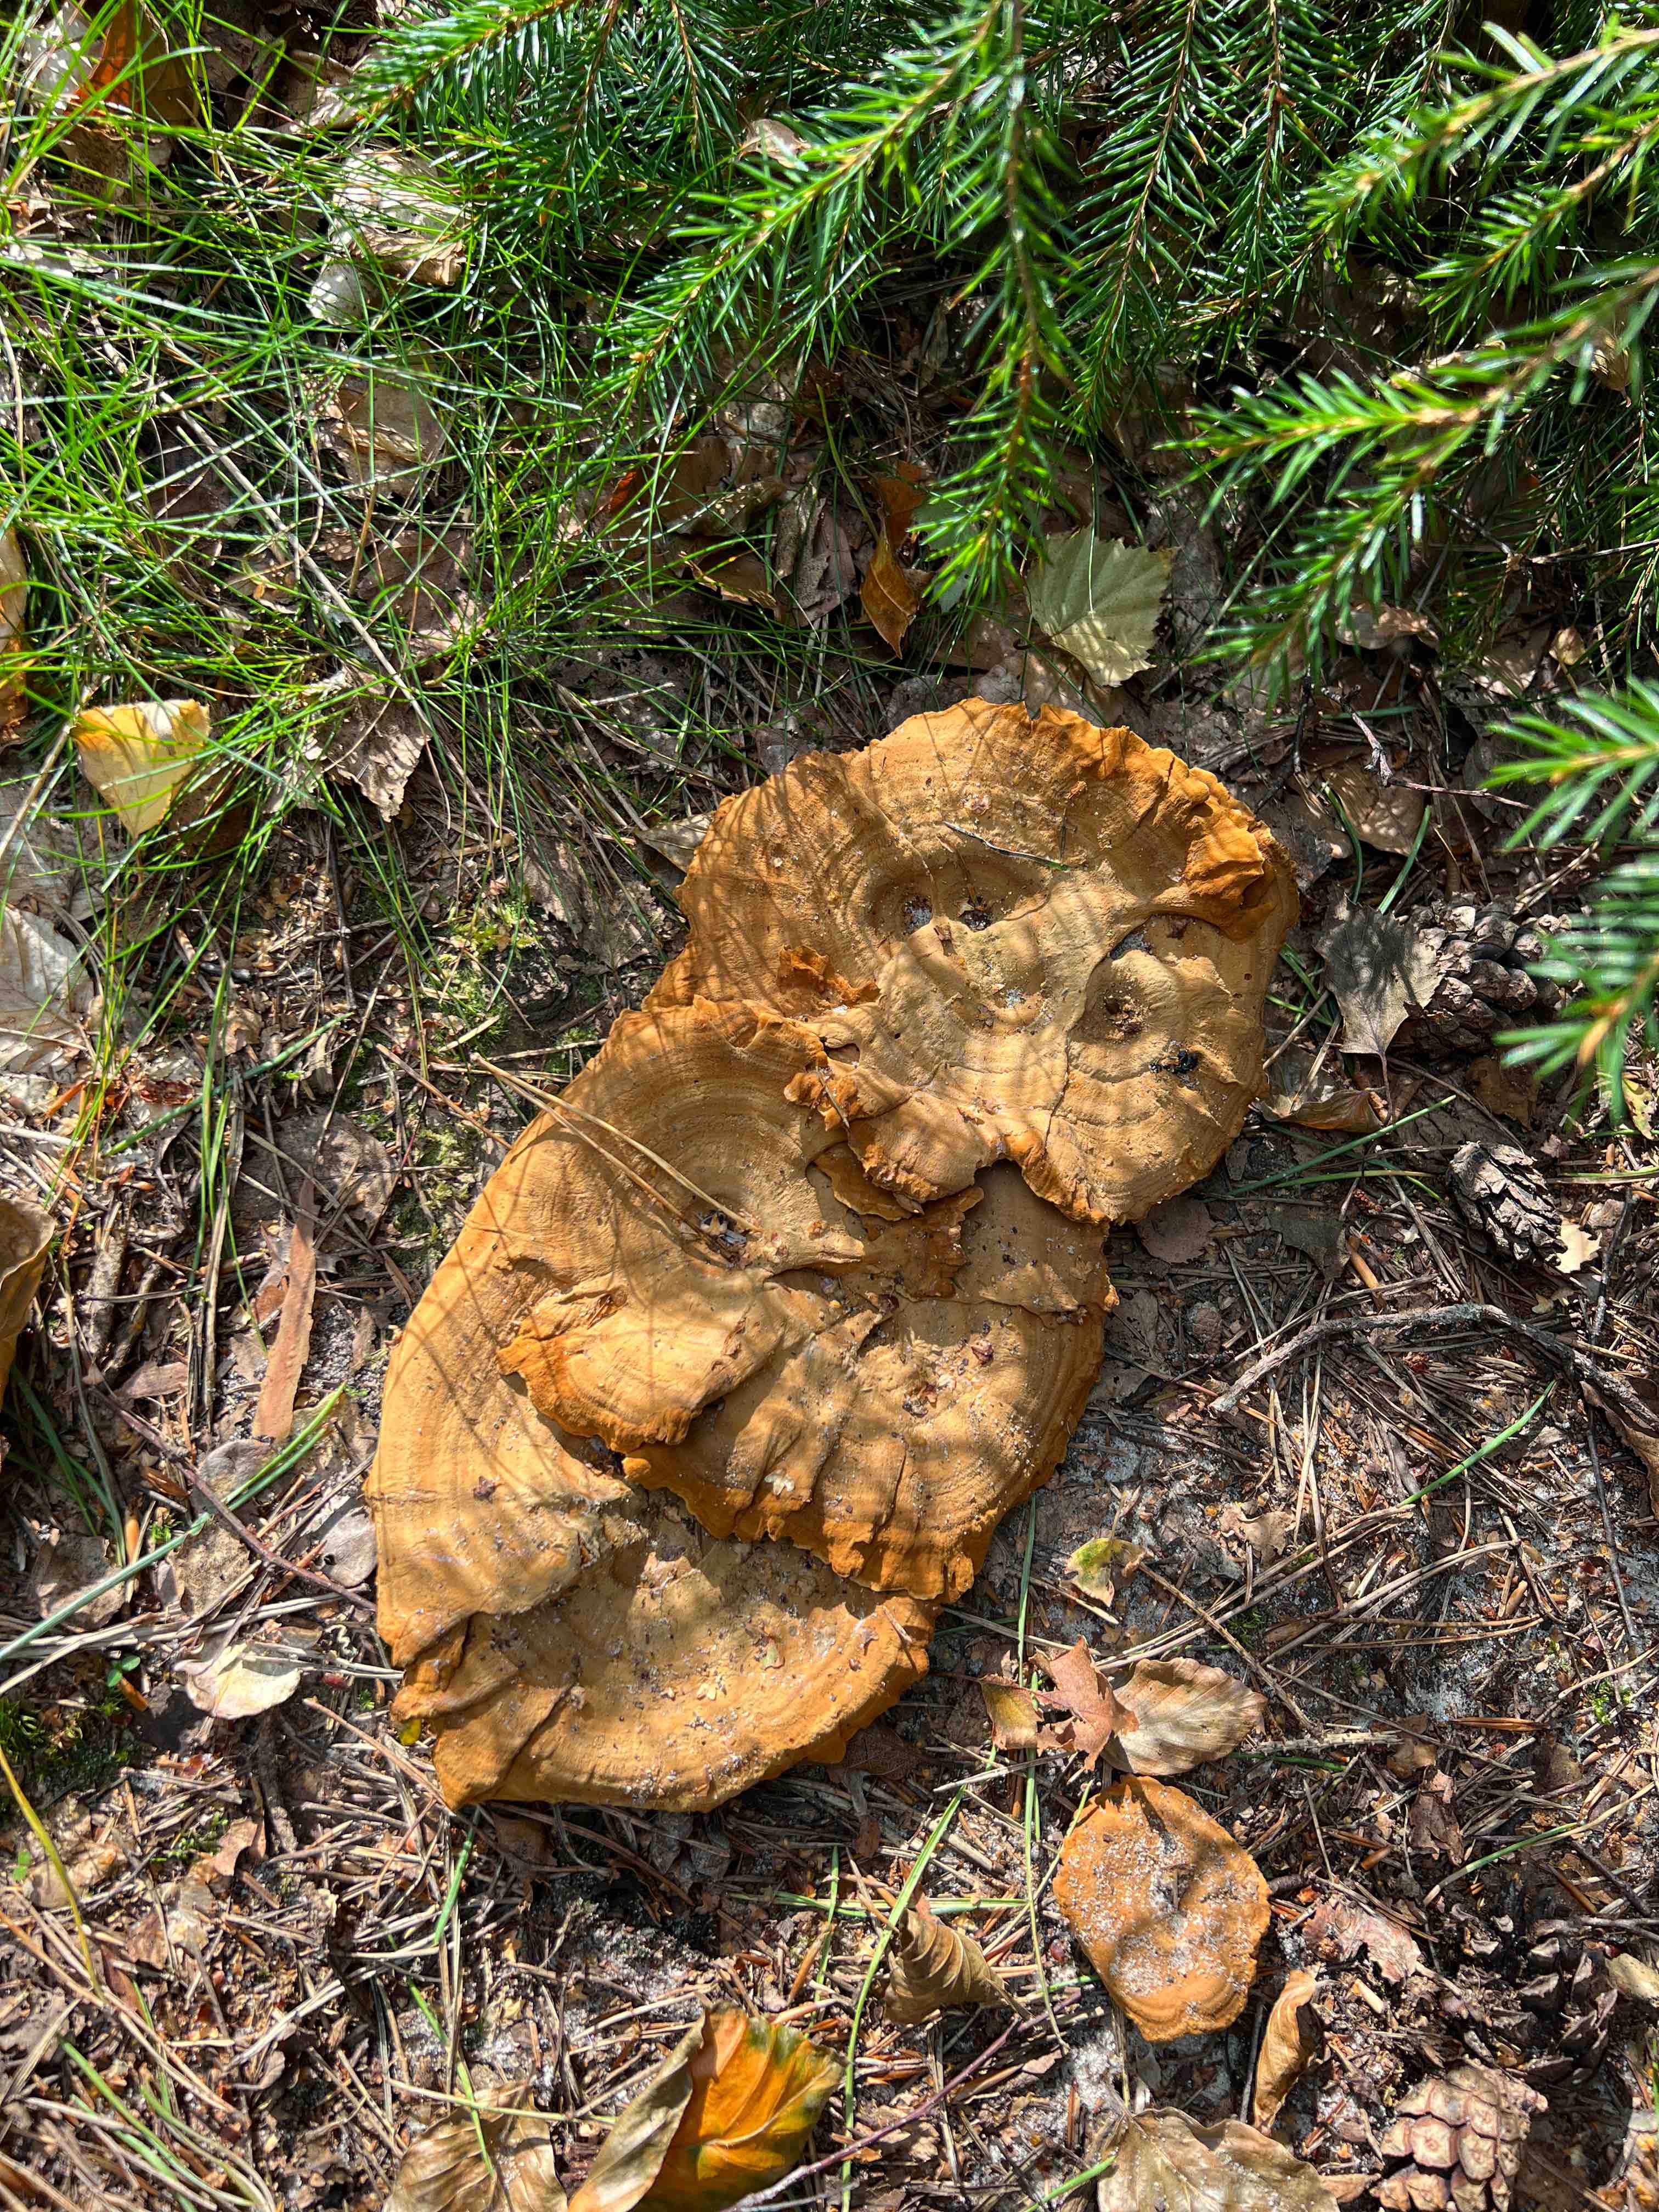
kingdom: Fungi
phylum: Basidiomycota
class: Agaricomycetes
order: Hymenochaetales
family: Hymenochaetaceae
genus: Coltricia
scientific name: Coltricia perennis
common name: almindelig sandporesvamp
